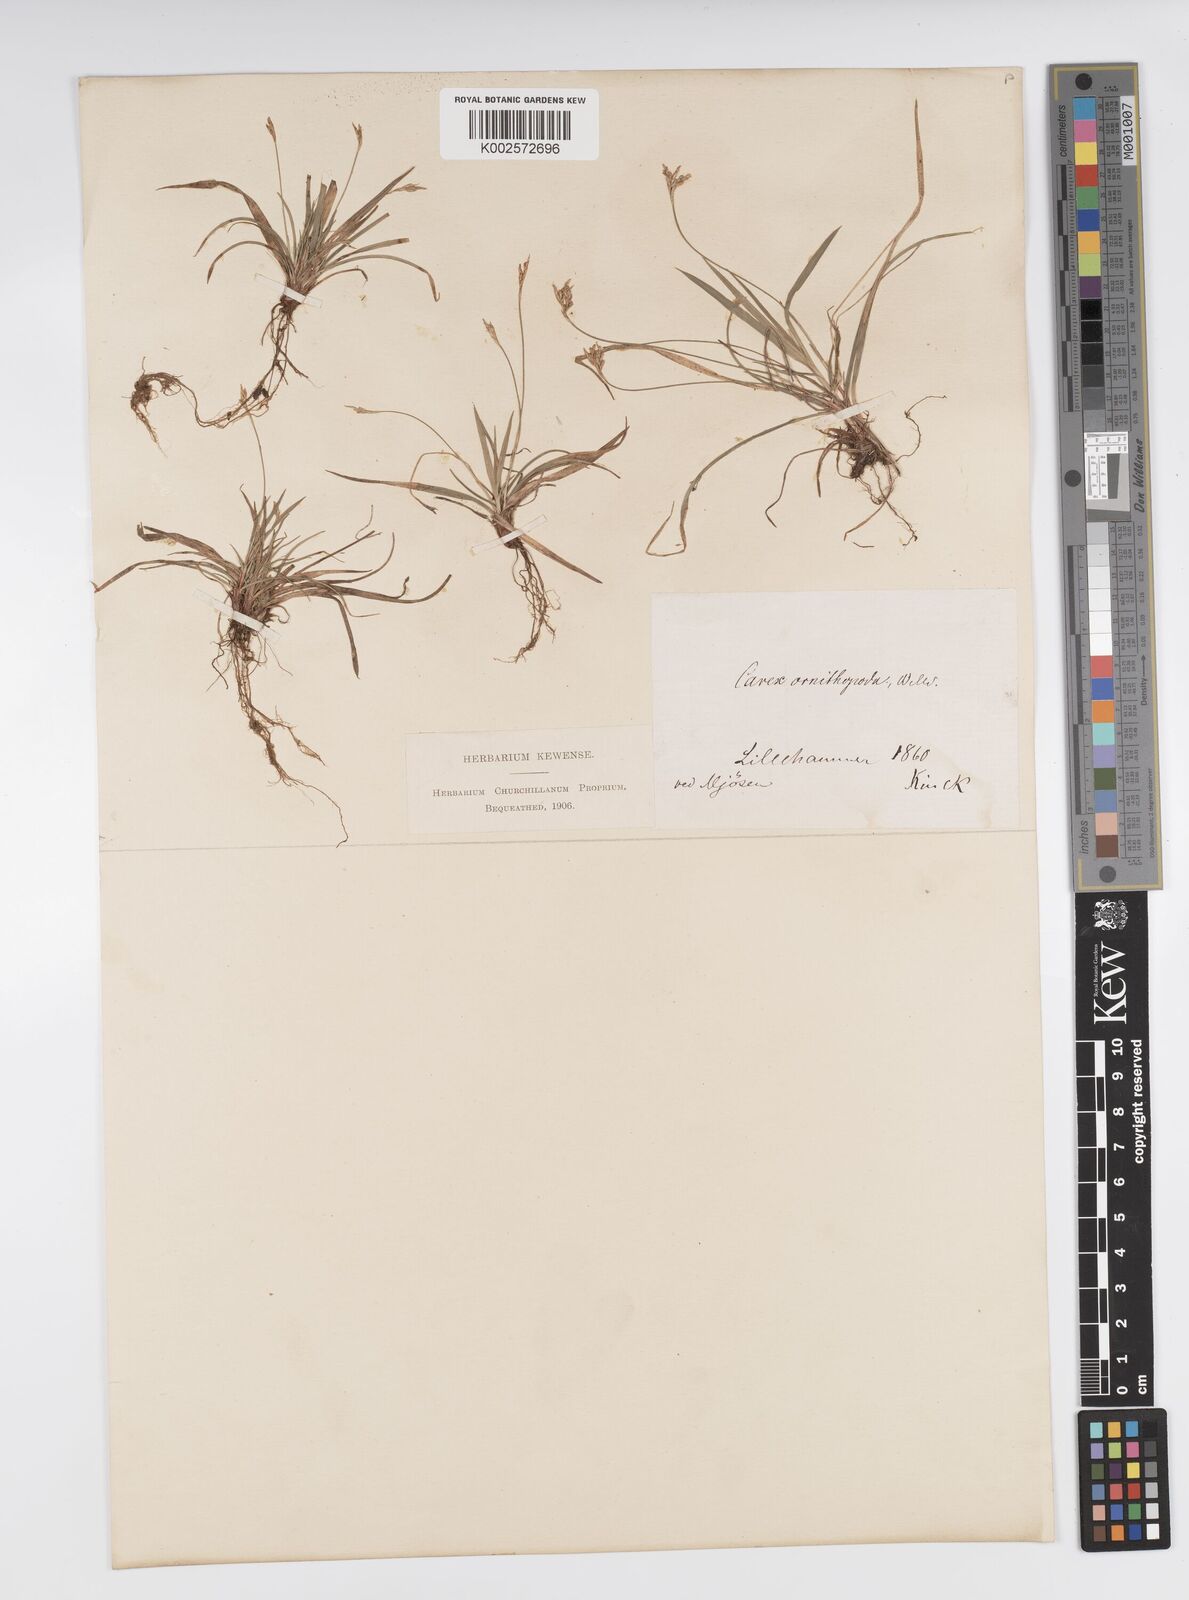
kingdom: Plantae
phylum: Tracheophyta
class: Liliopsida
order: Poales
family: Cyperaceae
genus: Carex
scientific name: Carex ornithopoda
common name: Bird's-foot sedge
